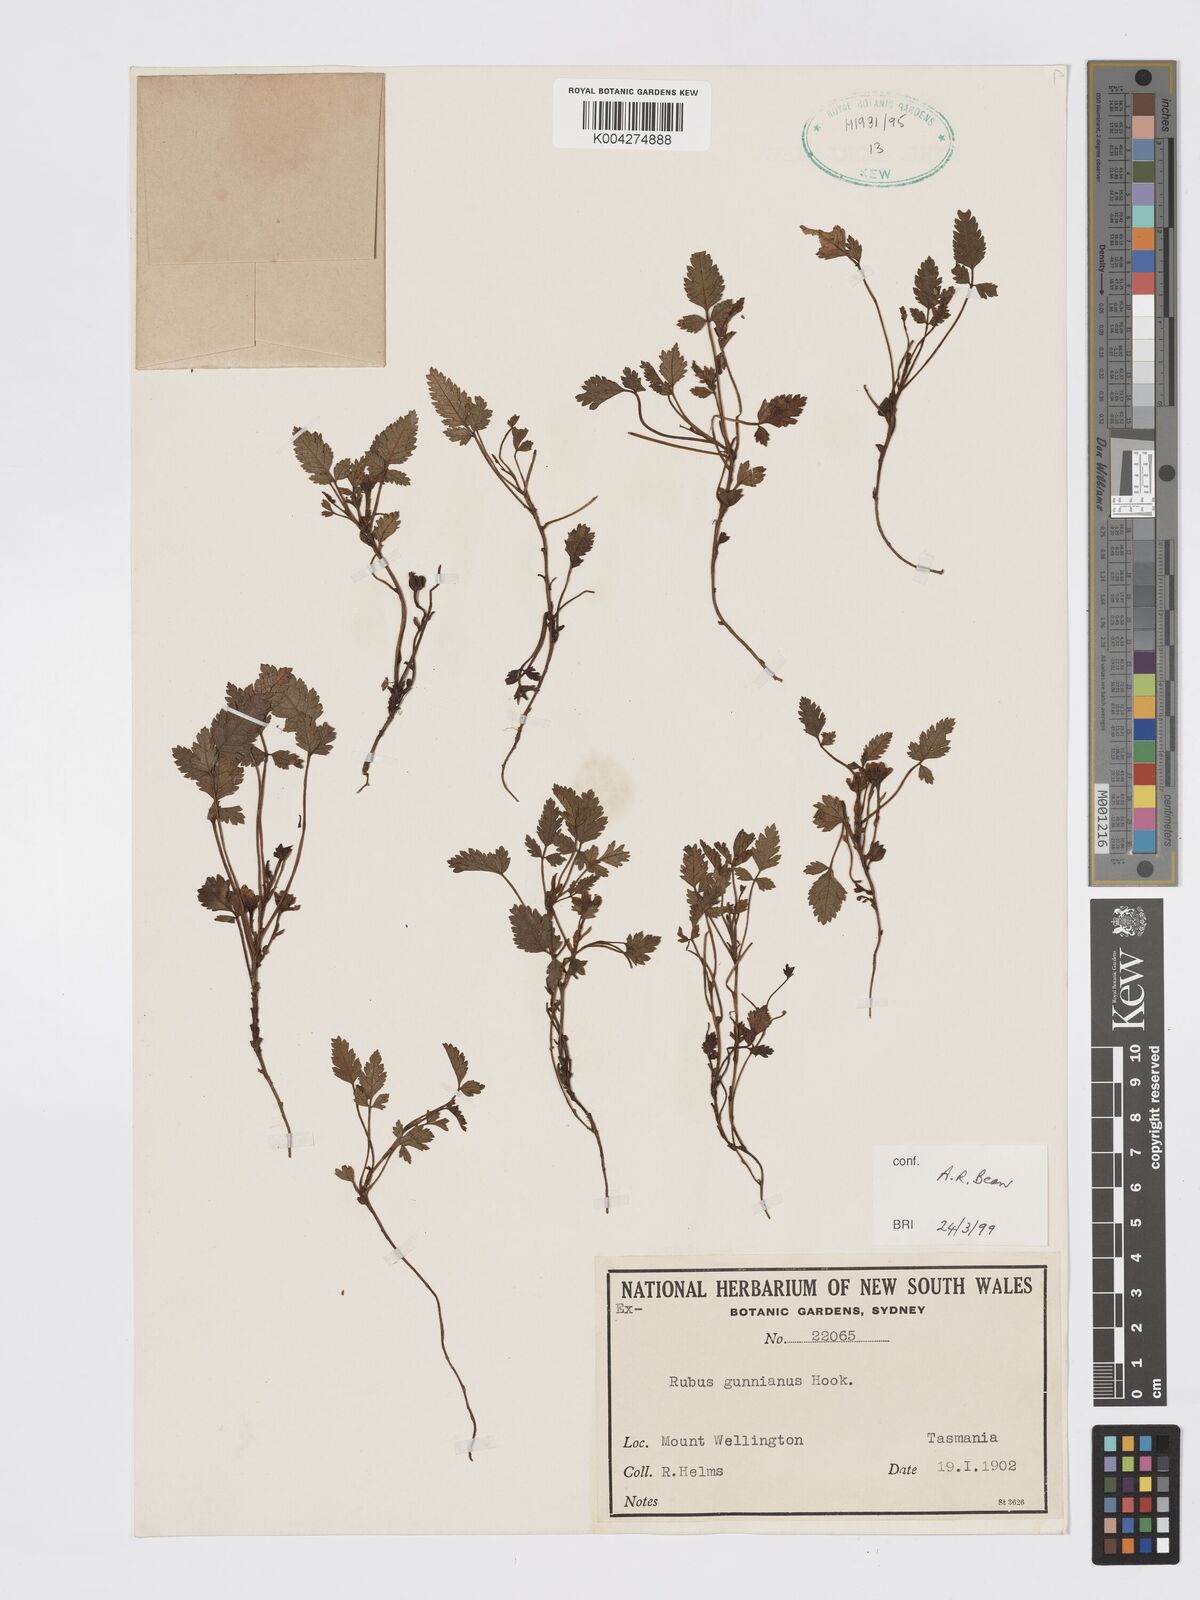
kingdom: Plantae
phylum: Tracheophyta
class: Magnoliopsida
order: Rosales
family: Rosaceae
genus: Rubus
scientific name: Rubus gunnianus
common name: Mountain raspberry
